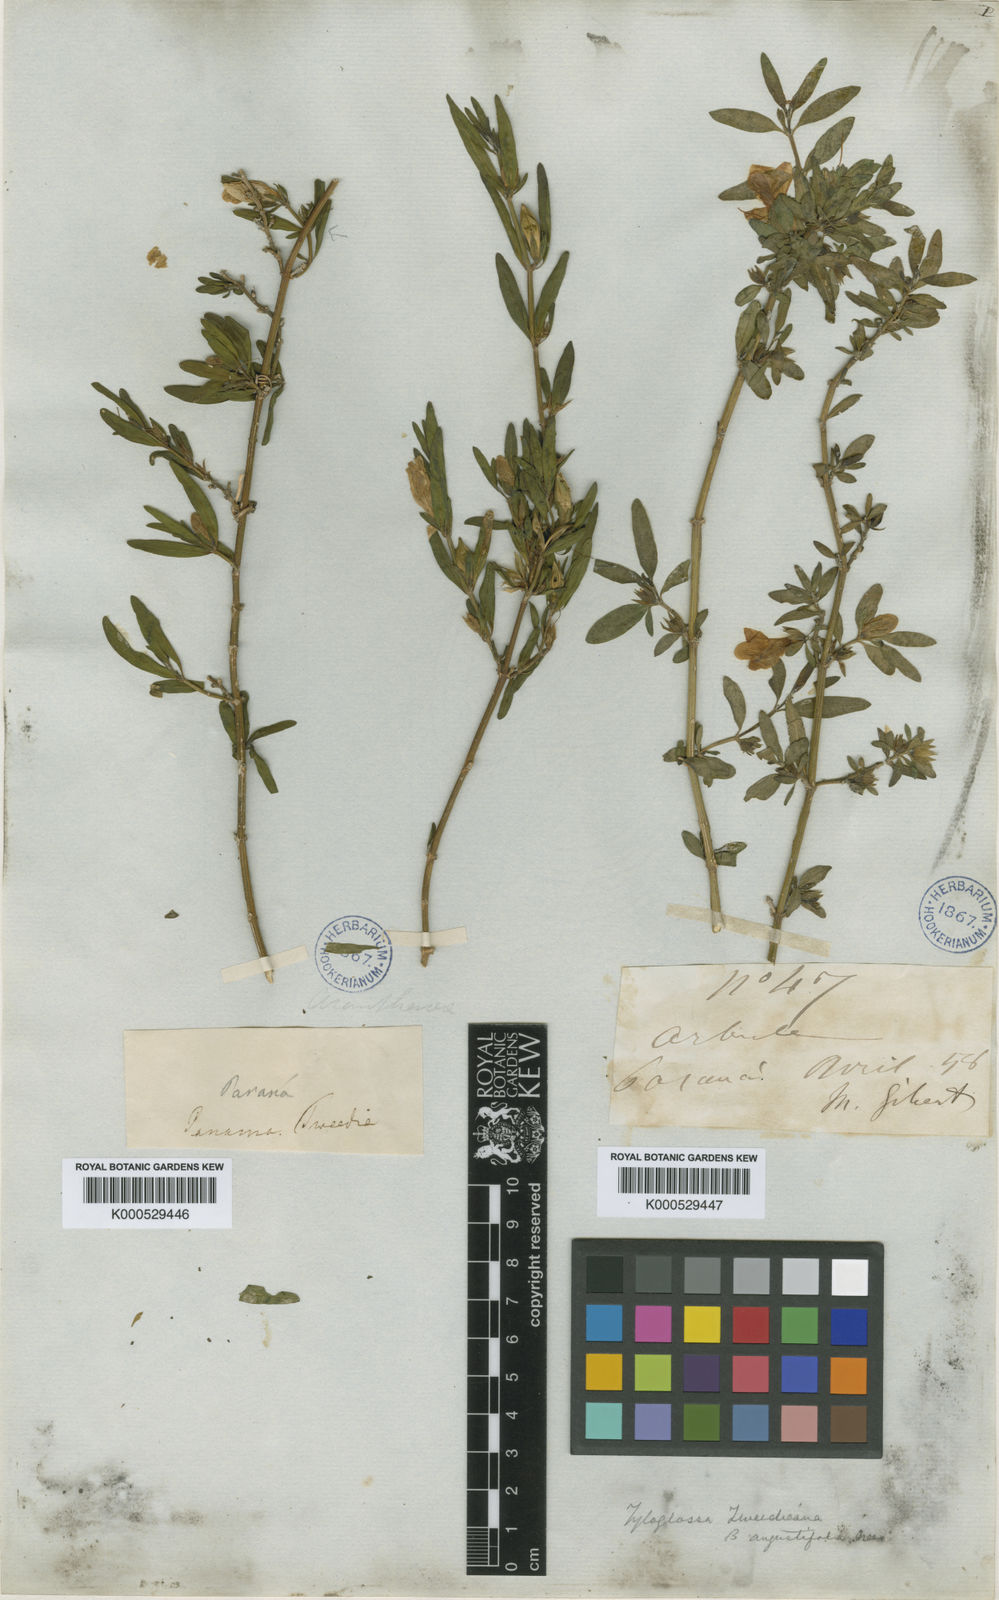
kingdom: Plantae
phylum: Tracheophyta
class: Magnoliopsida
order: Lamiales
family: Acanthaceae
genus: Justicia
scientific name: Justicia
